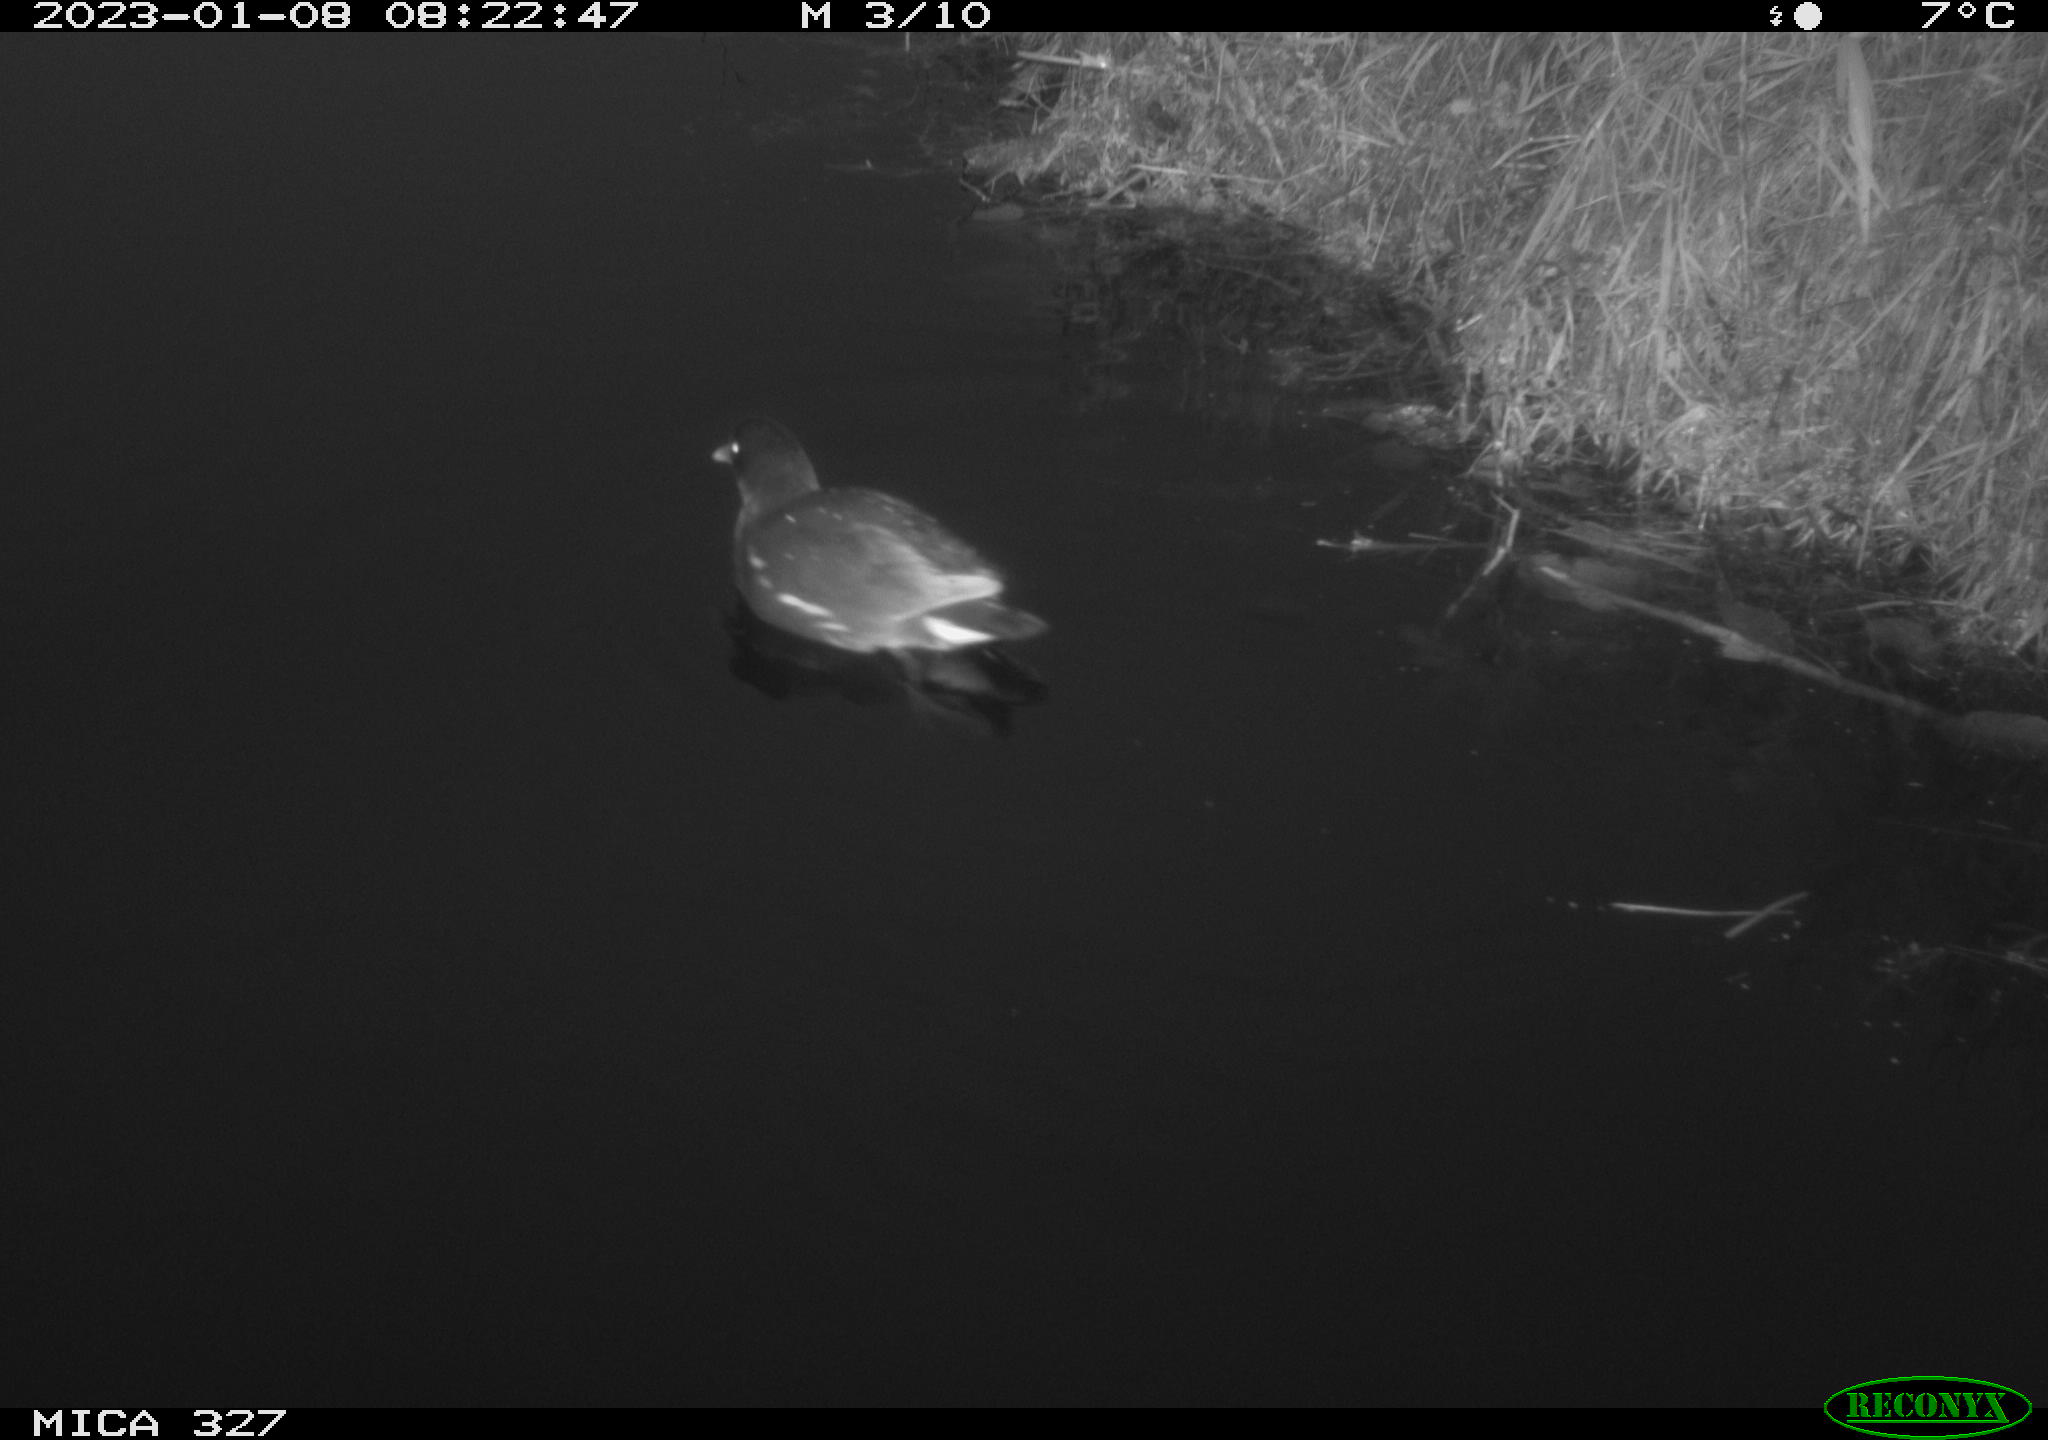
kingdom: Animalia
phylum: Chordata
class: Aves
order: Gruiformes
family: Rallidae
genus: Gallinula
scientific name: Gallinula chloropus
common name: Common moorhen
